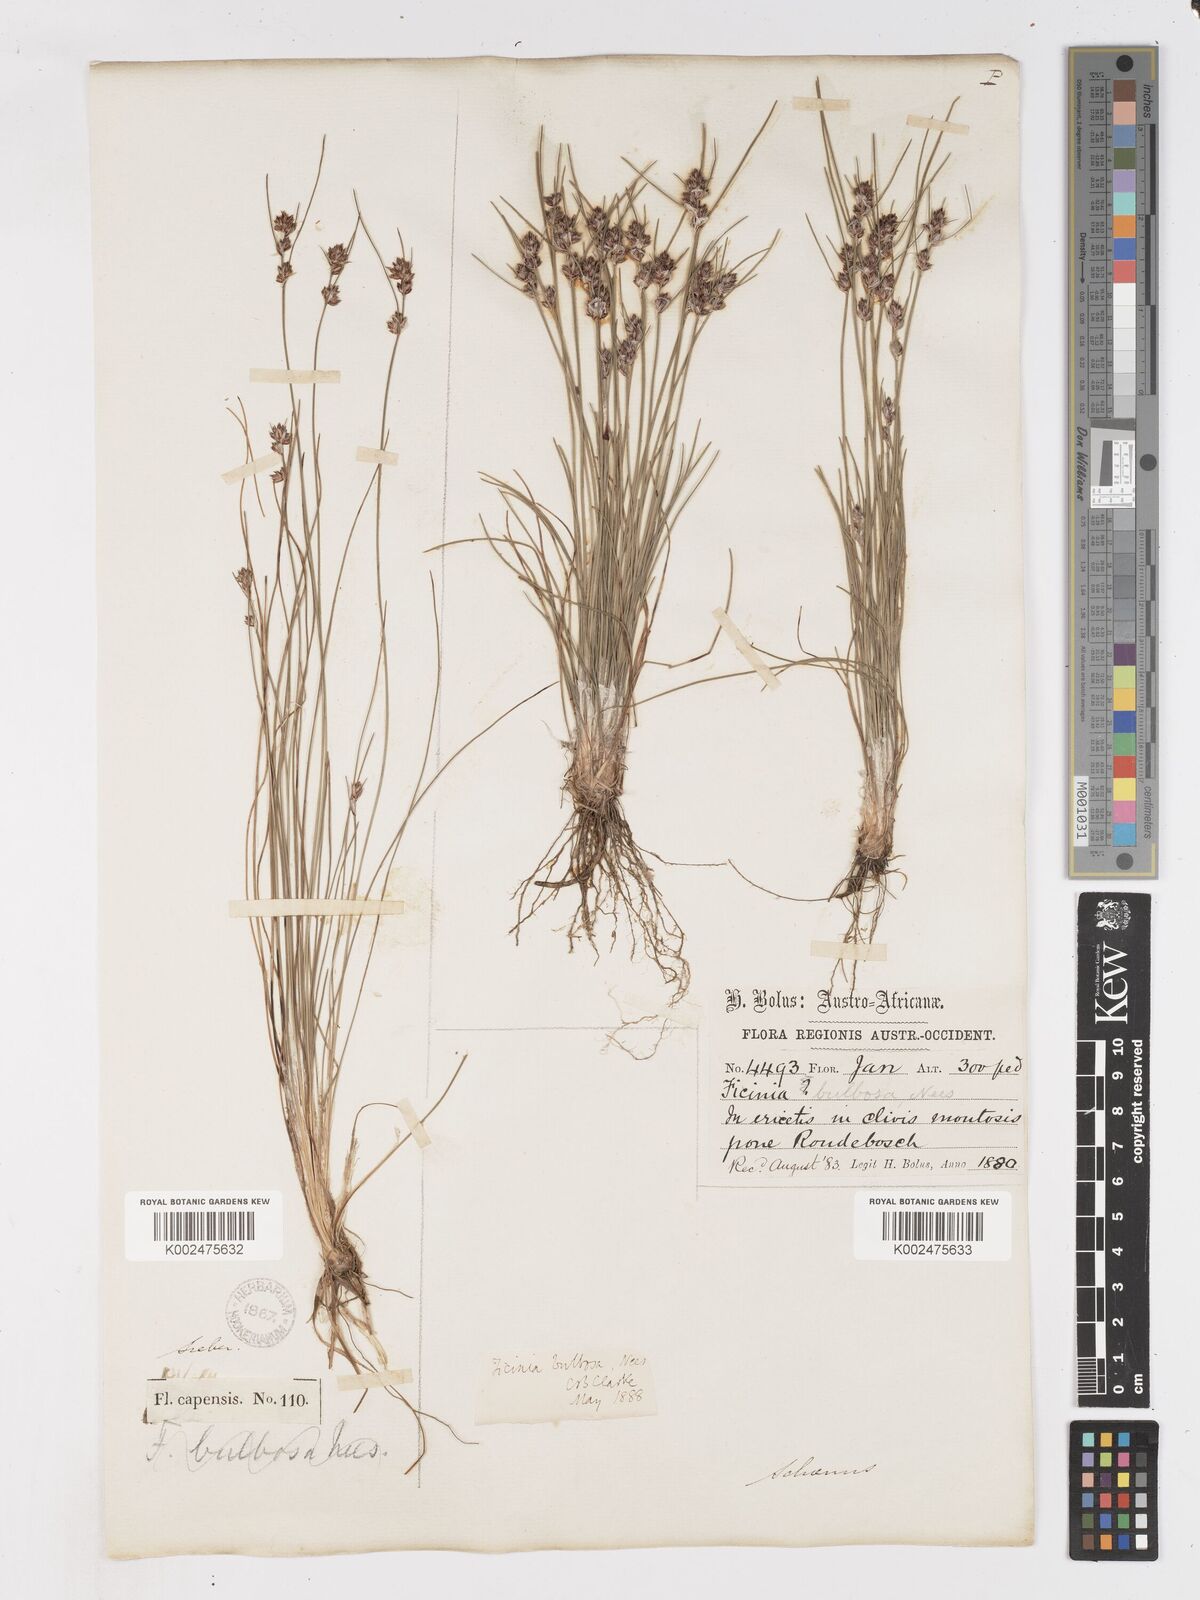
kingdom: Plantae
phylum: Tracheophyta
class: Liliopsida
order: Poales
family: Cyperaceae
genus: Ficinia
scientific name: Ficinia bulbosa
